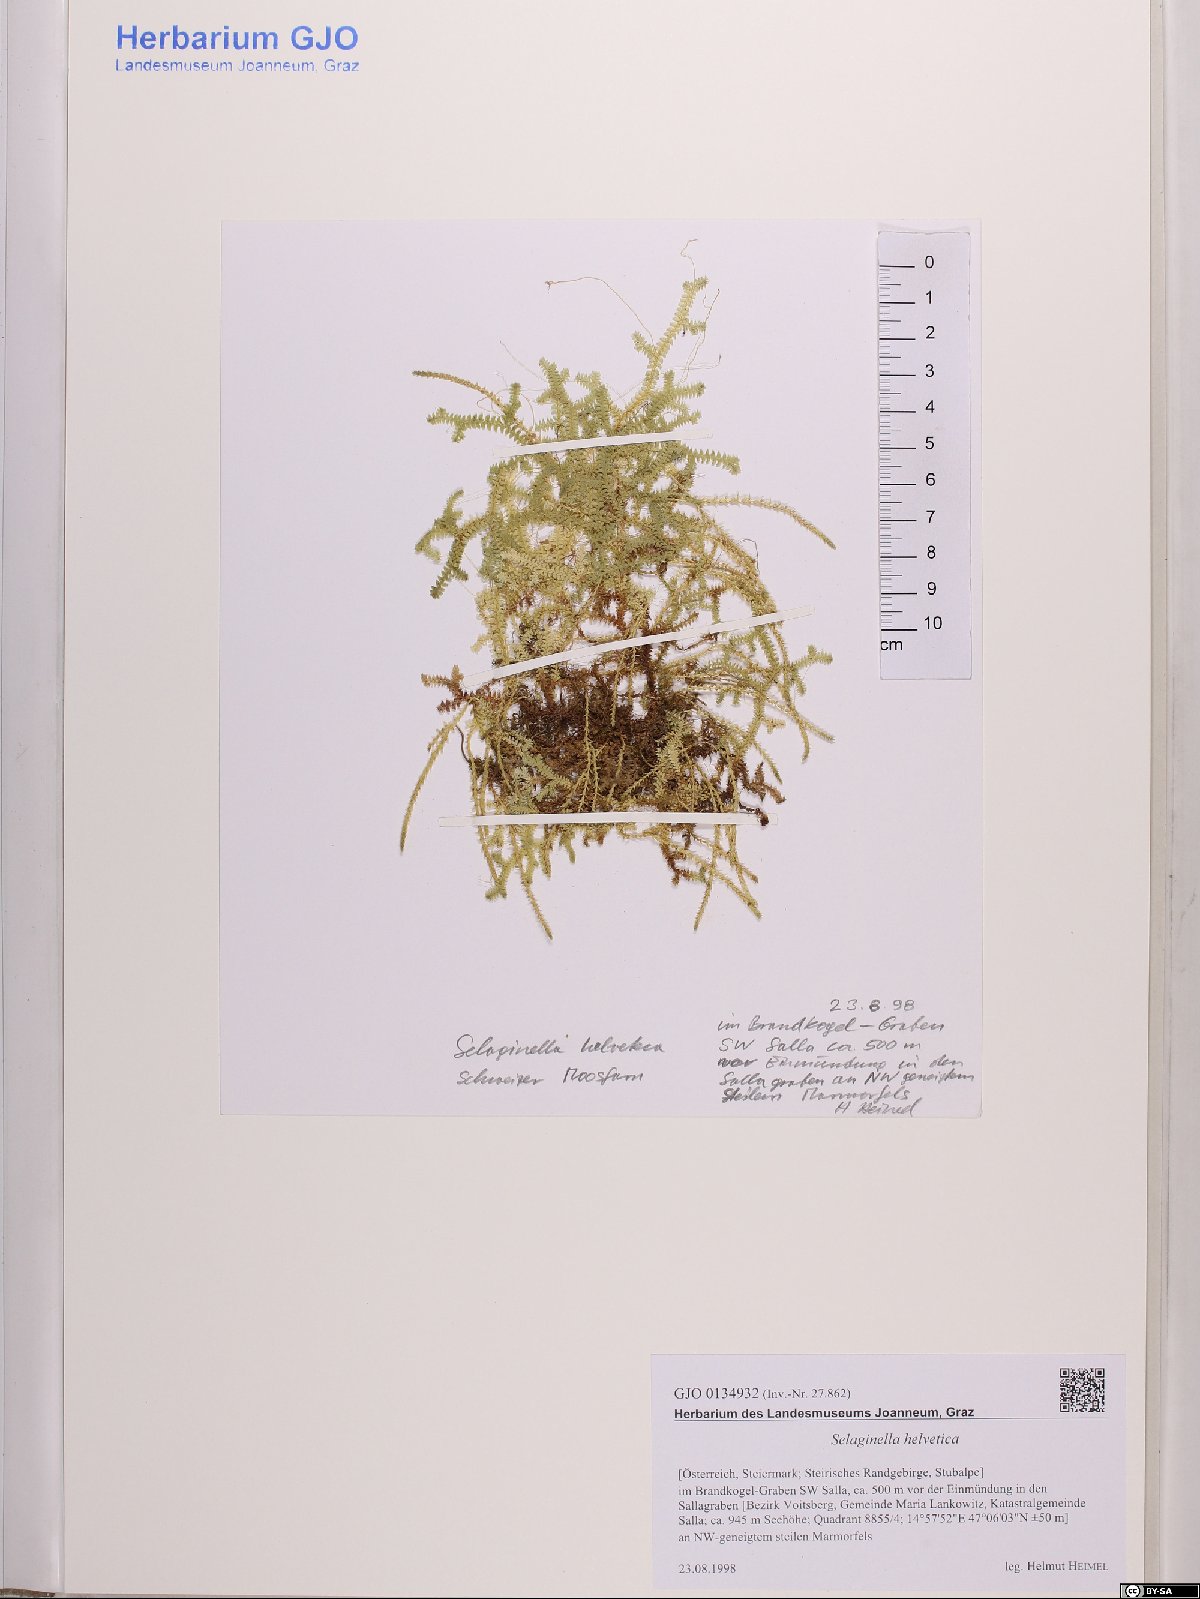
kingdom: Plantae
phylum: Tracheophyta
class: Lycopodiopsida
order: Selaginellales
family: Selaginellaceae
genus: Selaginella
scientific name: Selaginella helvetica
